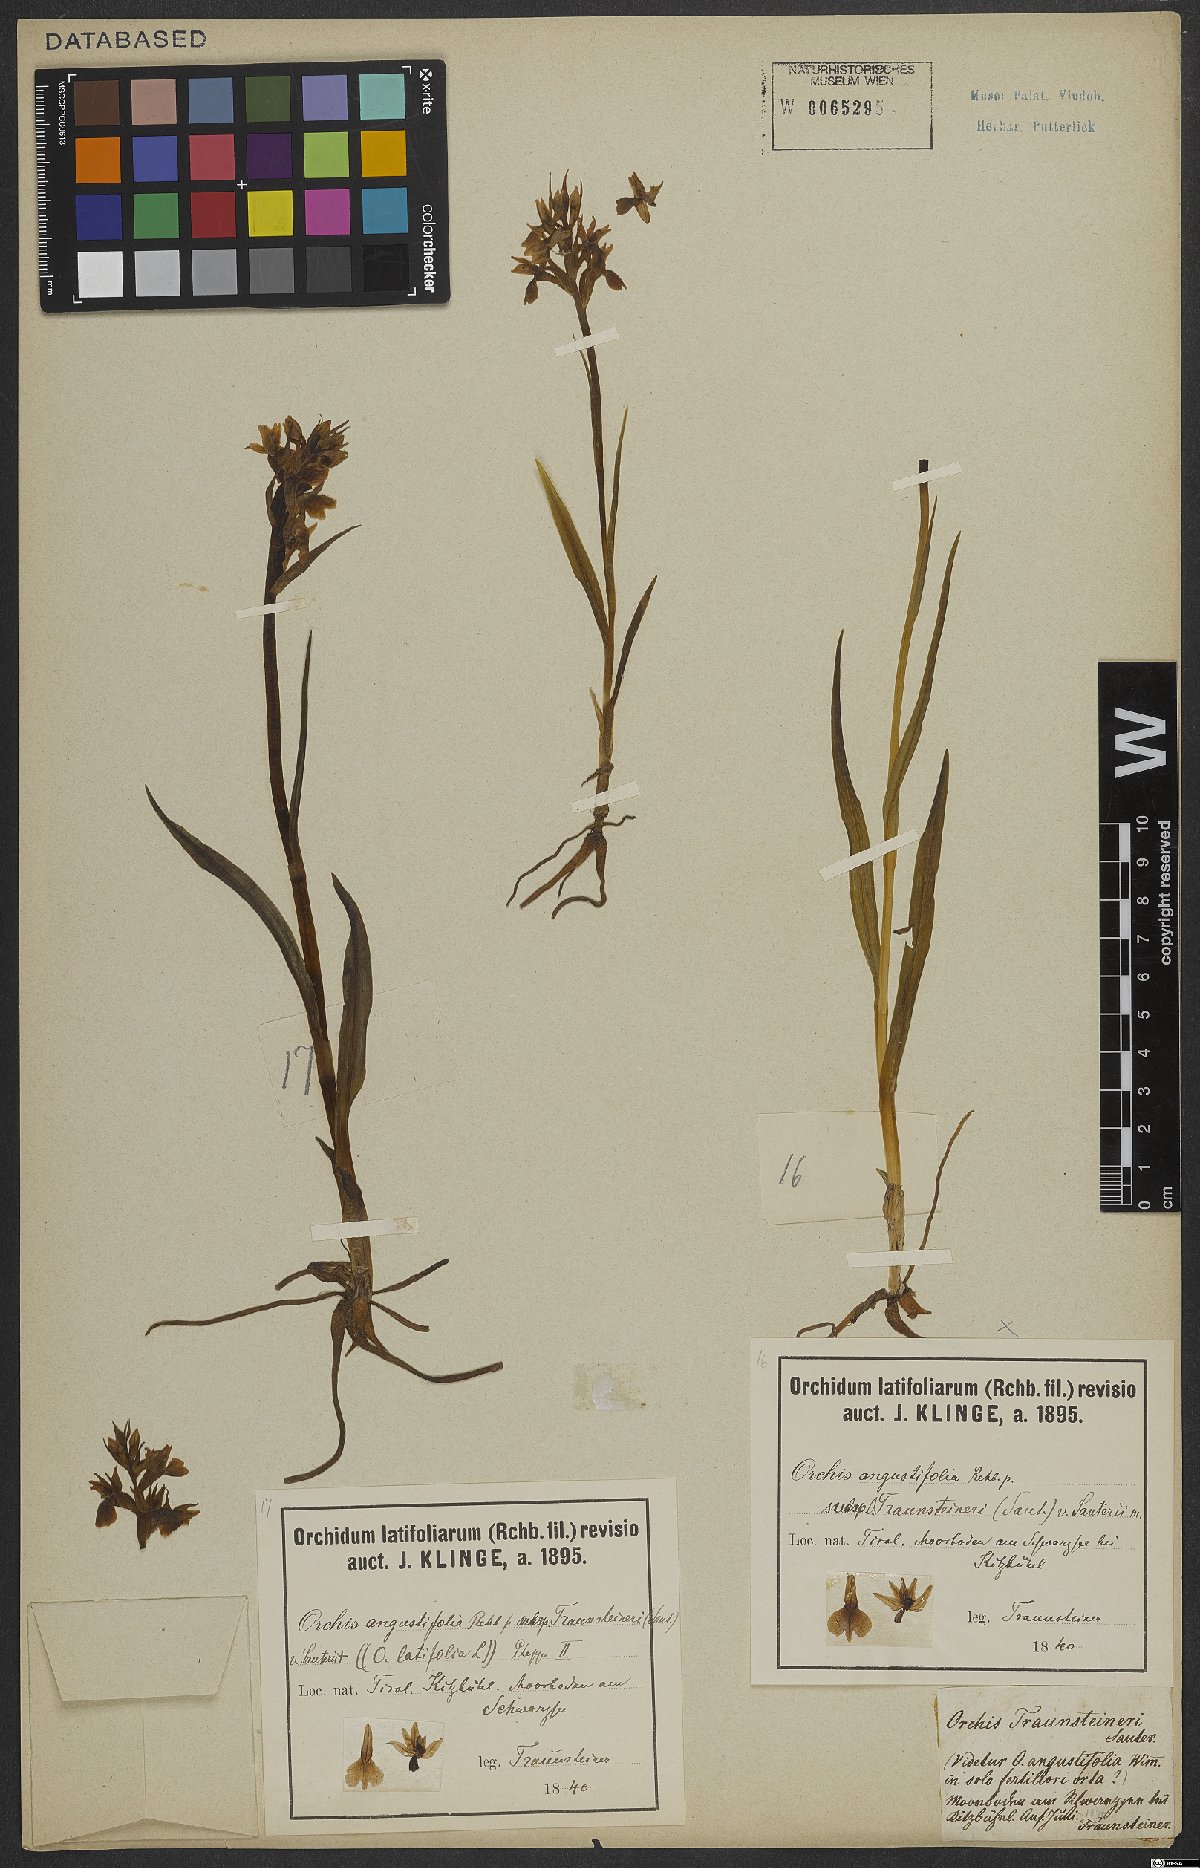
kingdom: Plantae
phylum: Tracheophyta
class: Liliopsida
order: Asparagales
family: Orchidaceae
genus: Dactylorhiza
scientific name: Dactylorhiza incarnata
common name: Early marsh-orchid
